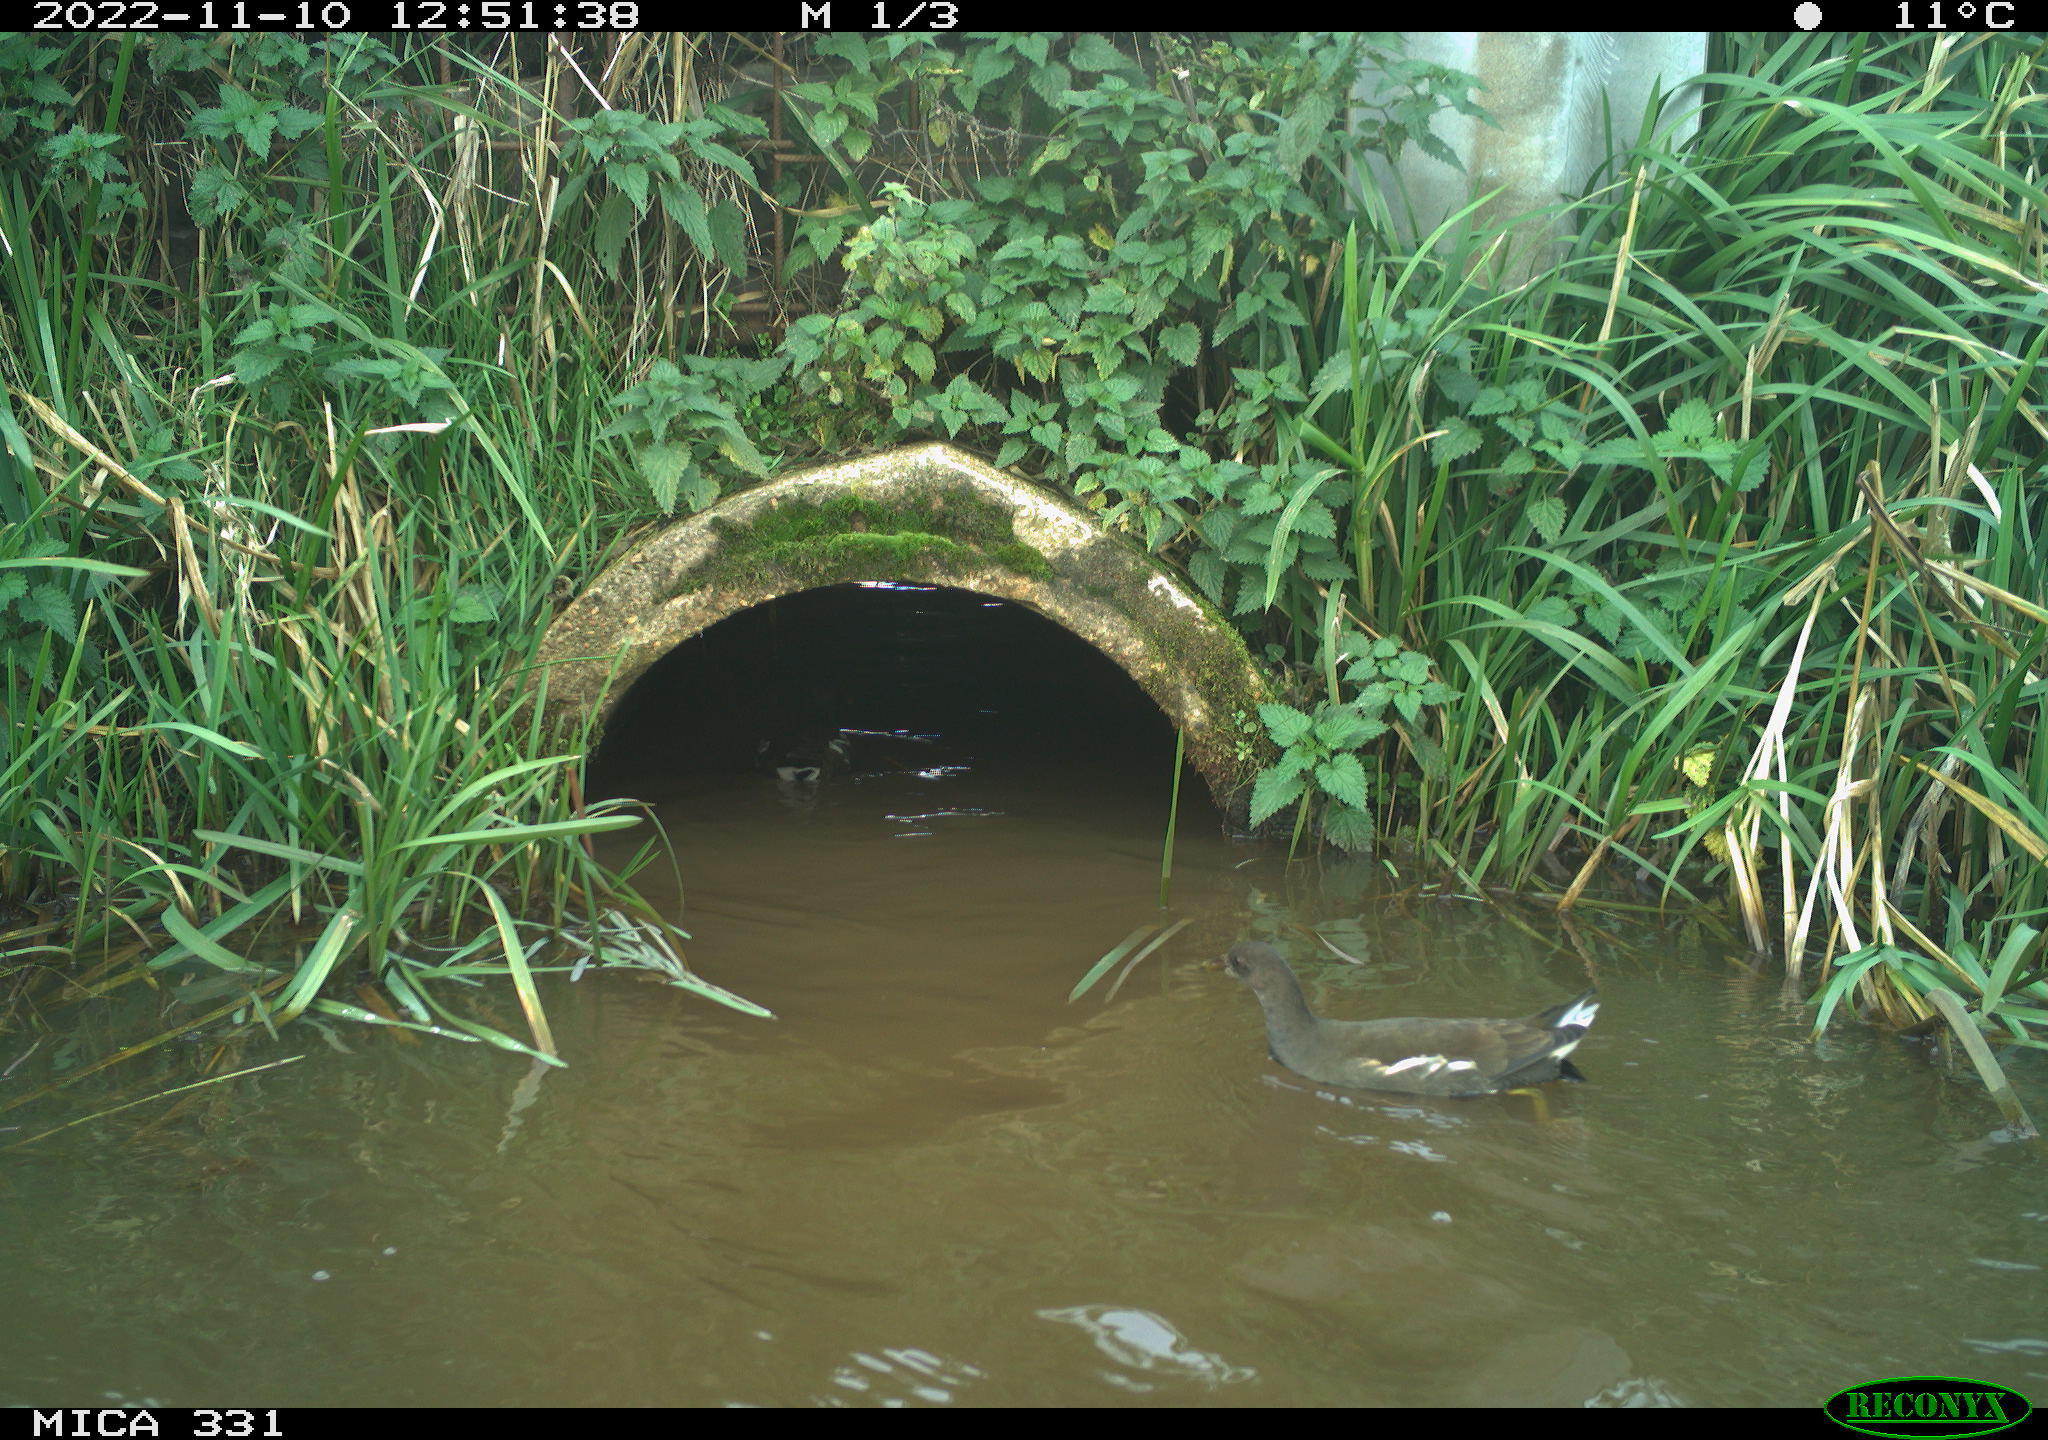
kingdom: Animalia
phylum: Chordata
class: Aves
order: Gruiformes
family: Rallidae
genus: Gallinula
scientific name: Gallinula chloropus
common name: Common moorhen
